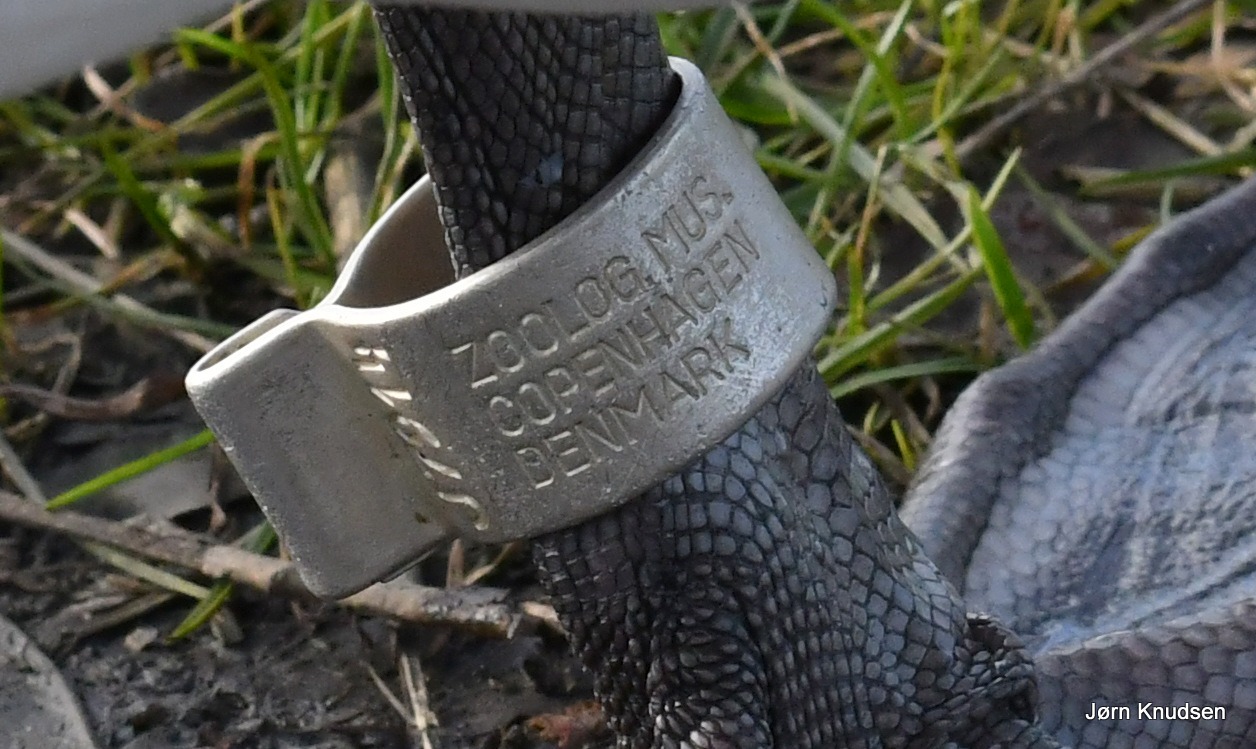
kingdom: Animalia
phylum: Chordata
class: Aves
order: Anseriformes
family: Anatidae
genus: Cygnus
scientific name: Cygnus olor
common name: Knopsvane
